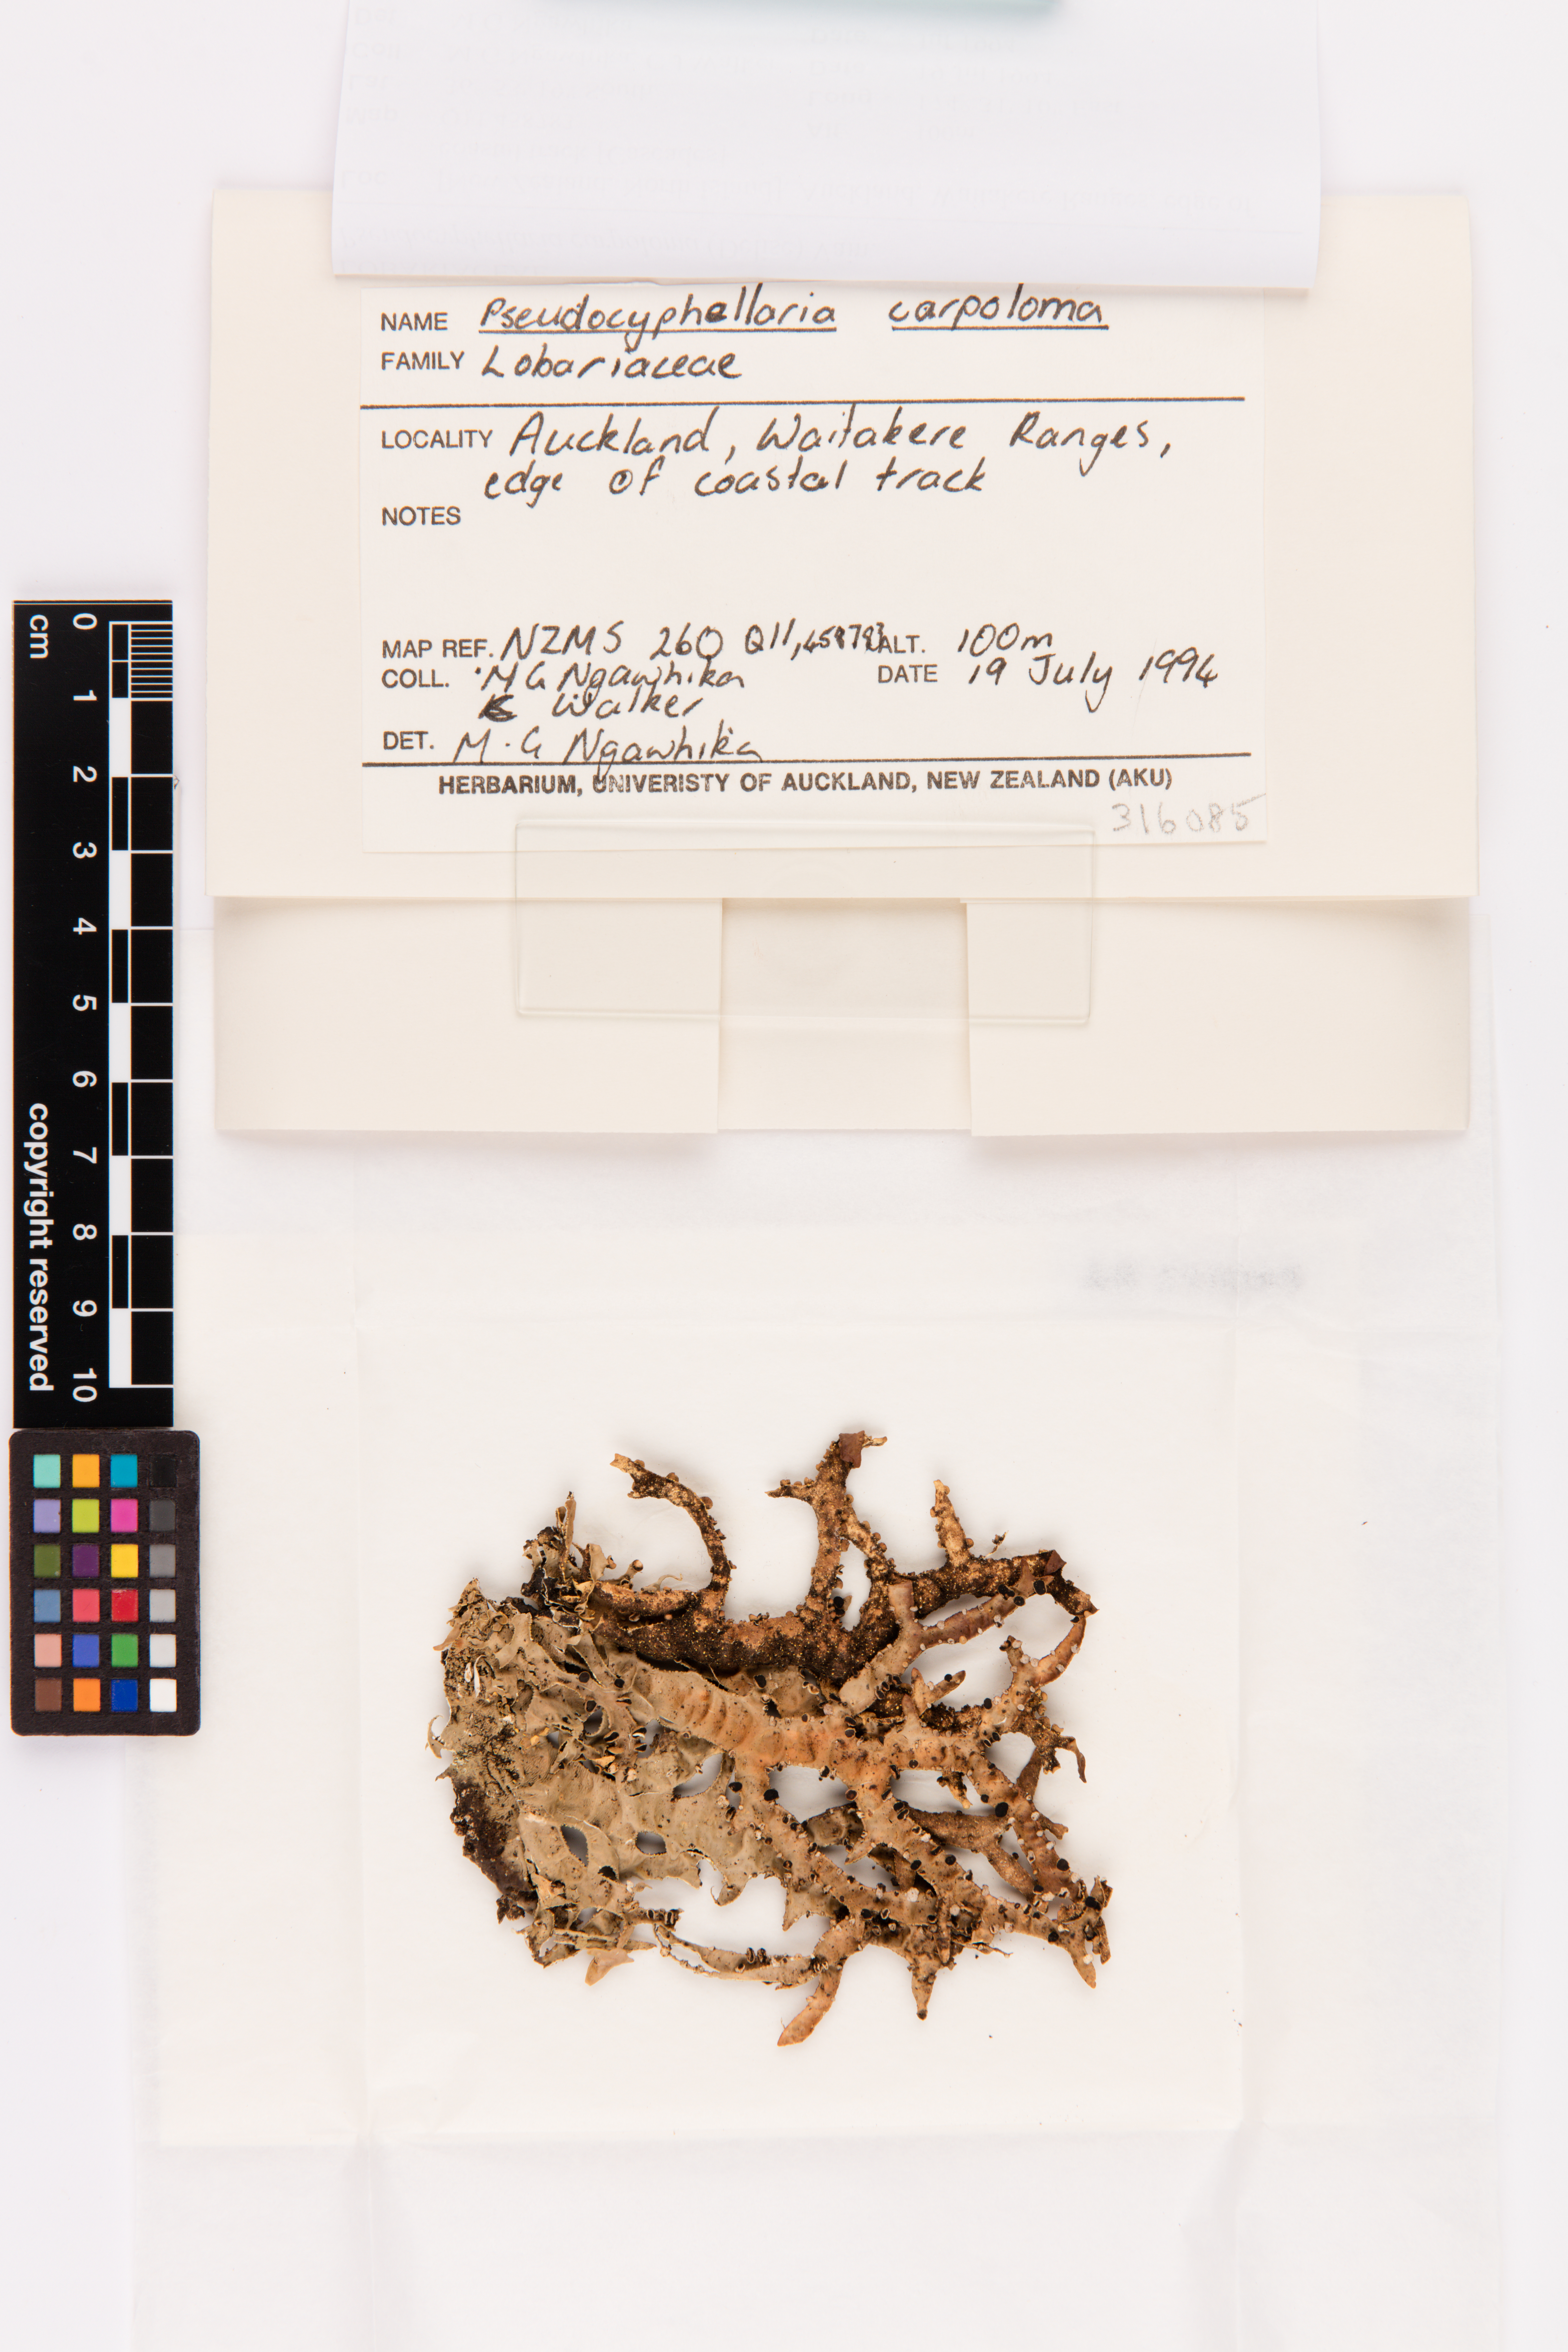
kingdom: Fungi
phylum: Ascomycota
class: Lecanoromycetes
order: Peltigerales
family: Lobariaceae
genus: Pseudocyphellaria
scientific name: Pseudocyphellaria carpoloma
